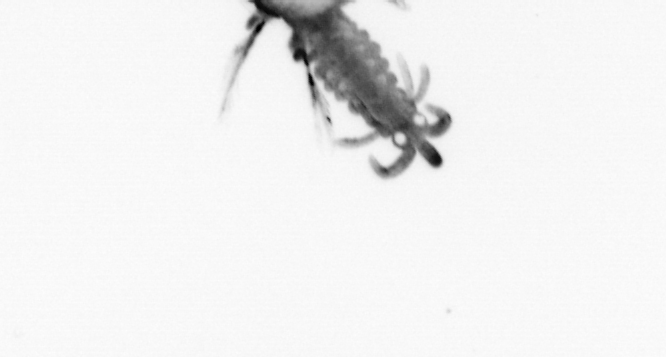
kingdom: Animalia
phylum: Annelida
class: Polychaeta
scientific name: Polychaeta
